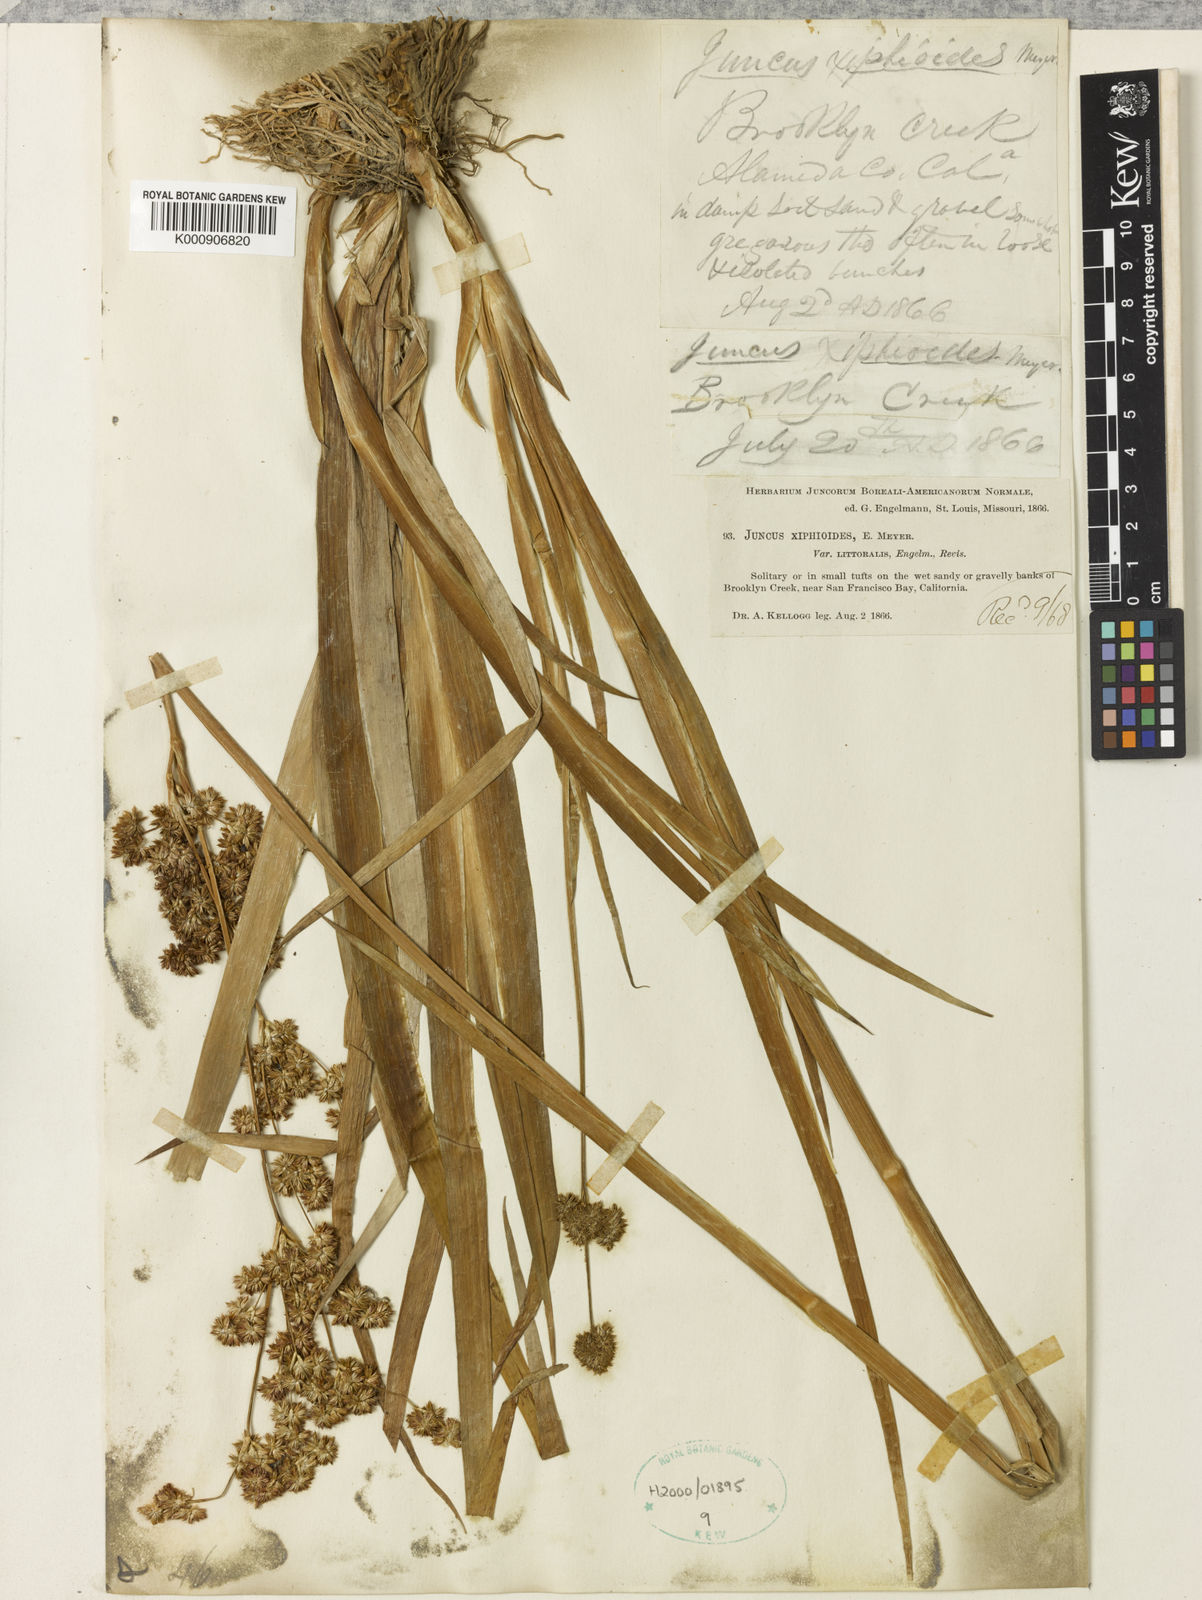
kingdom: Plantae
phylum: Tracheophyta
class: Liliopsida
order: Poales
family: Juncaceae
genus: Juncus
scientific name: Juncus xiphioides
